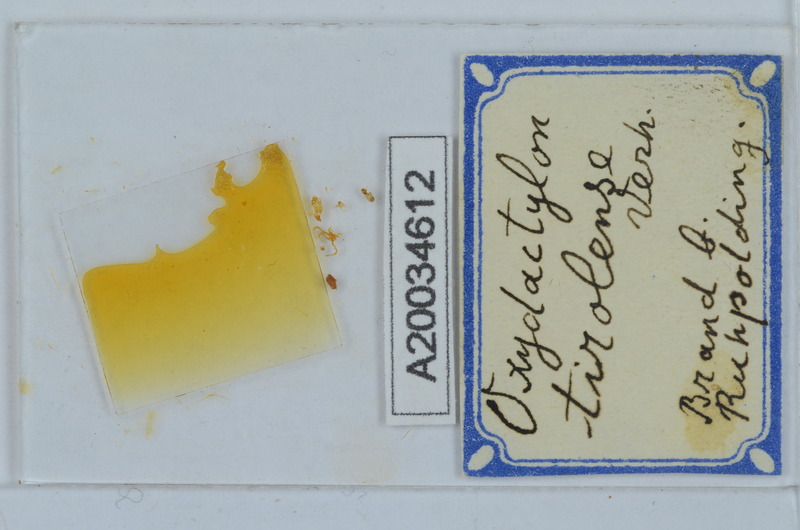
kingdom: Animalia
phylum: Arthropoda
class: Diplopoda
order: Chordeumatida
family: Craspedosomatidae
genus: Oxydactylon
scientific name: Oxydactylon tirolense
